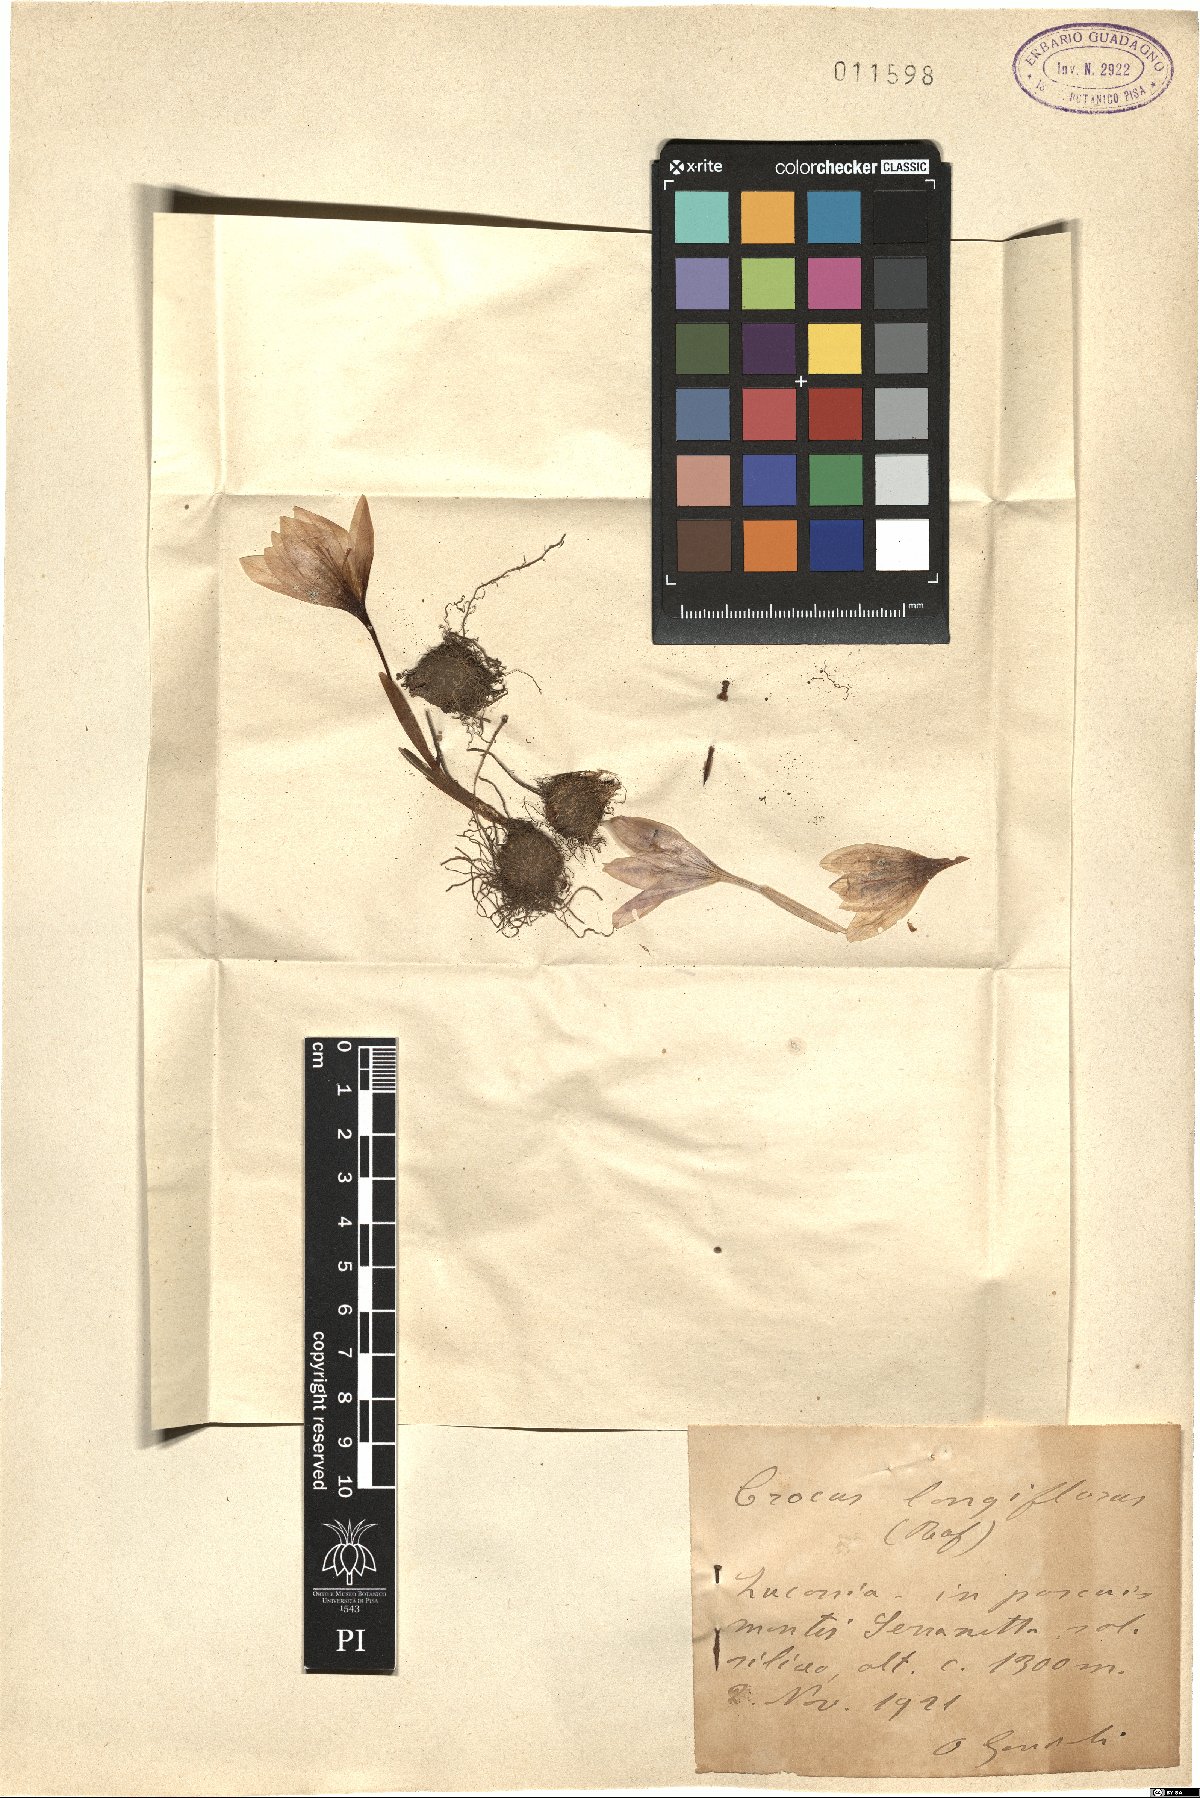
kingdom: Plantae
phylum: Tracheophyta
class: Liliopsida
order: Asparagales
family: Iridaceae
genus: Crocus
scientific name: Crocus longiflorus
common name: Italian crocus
